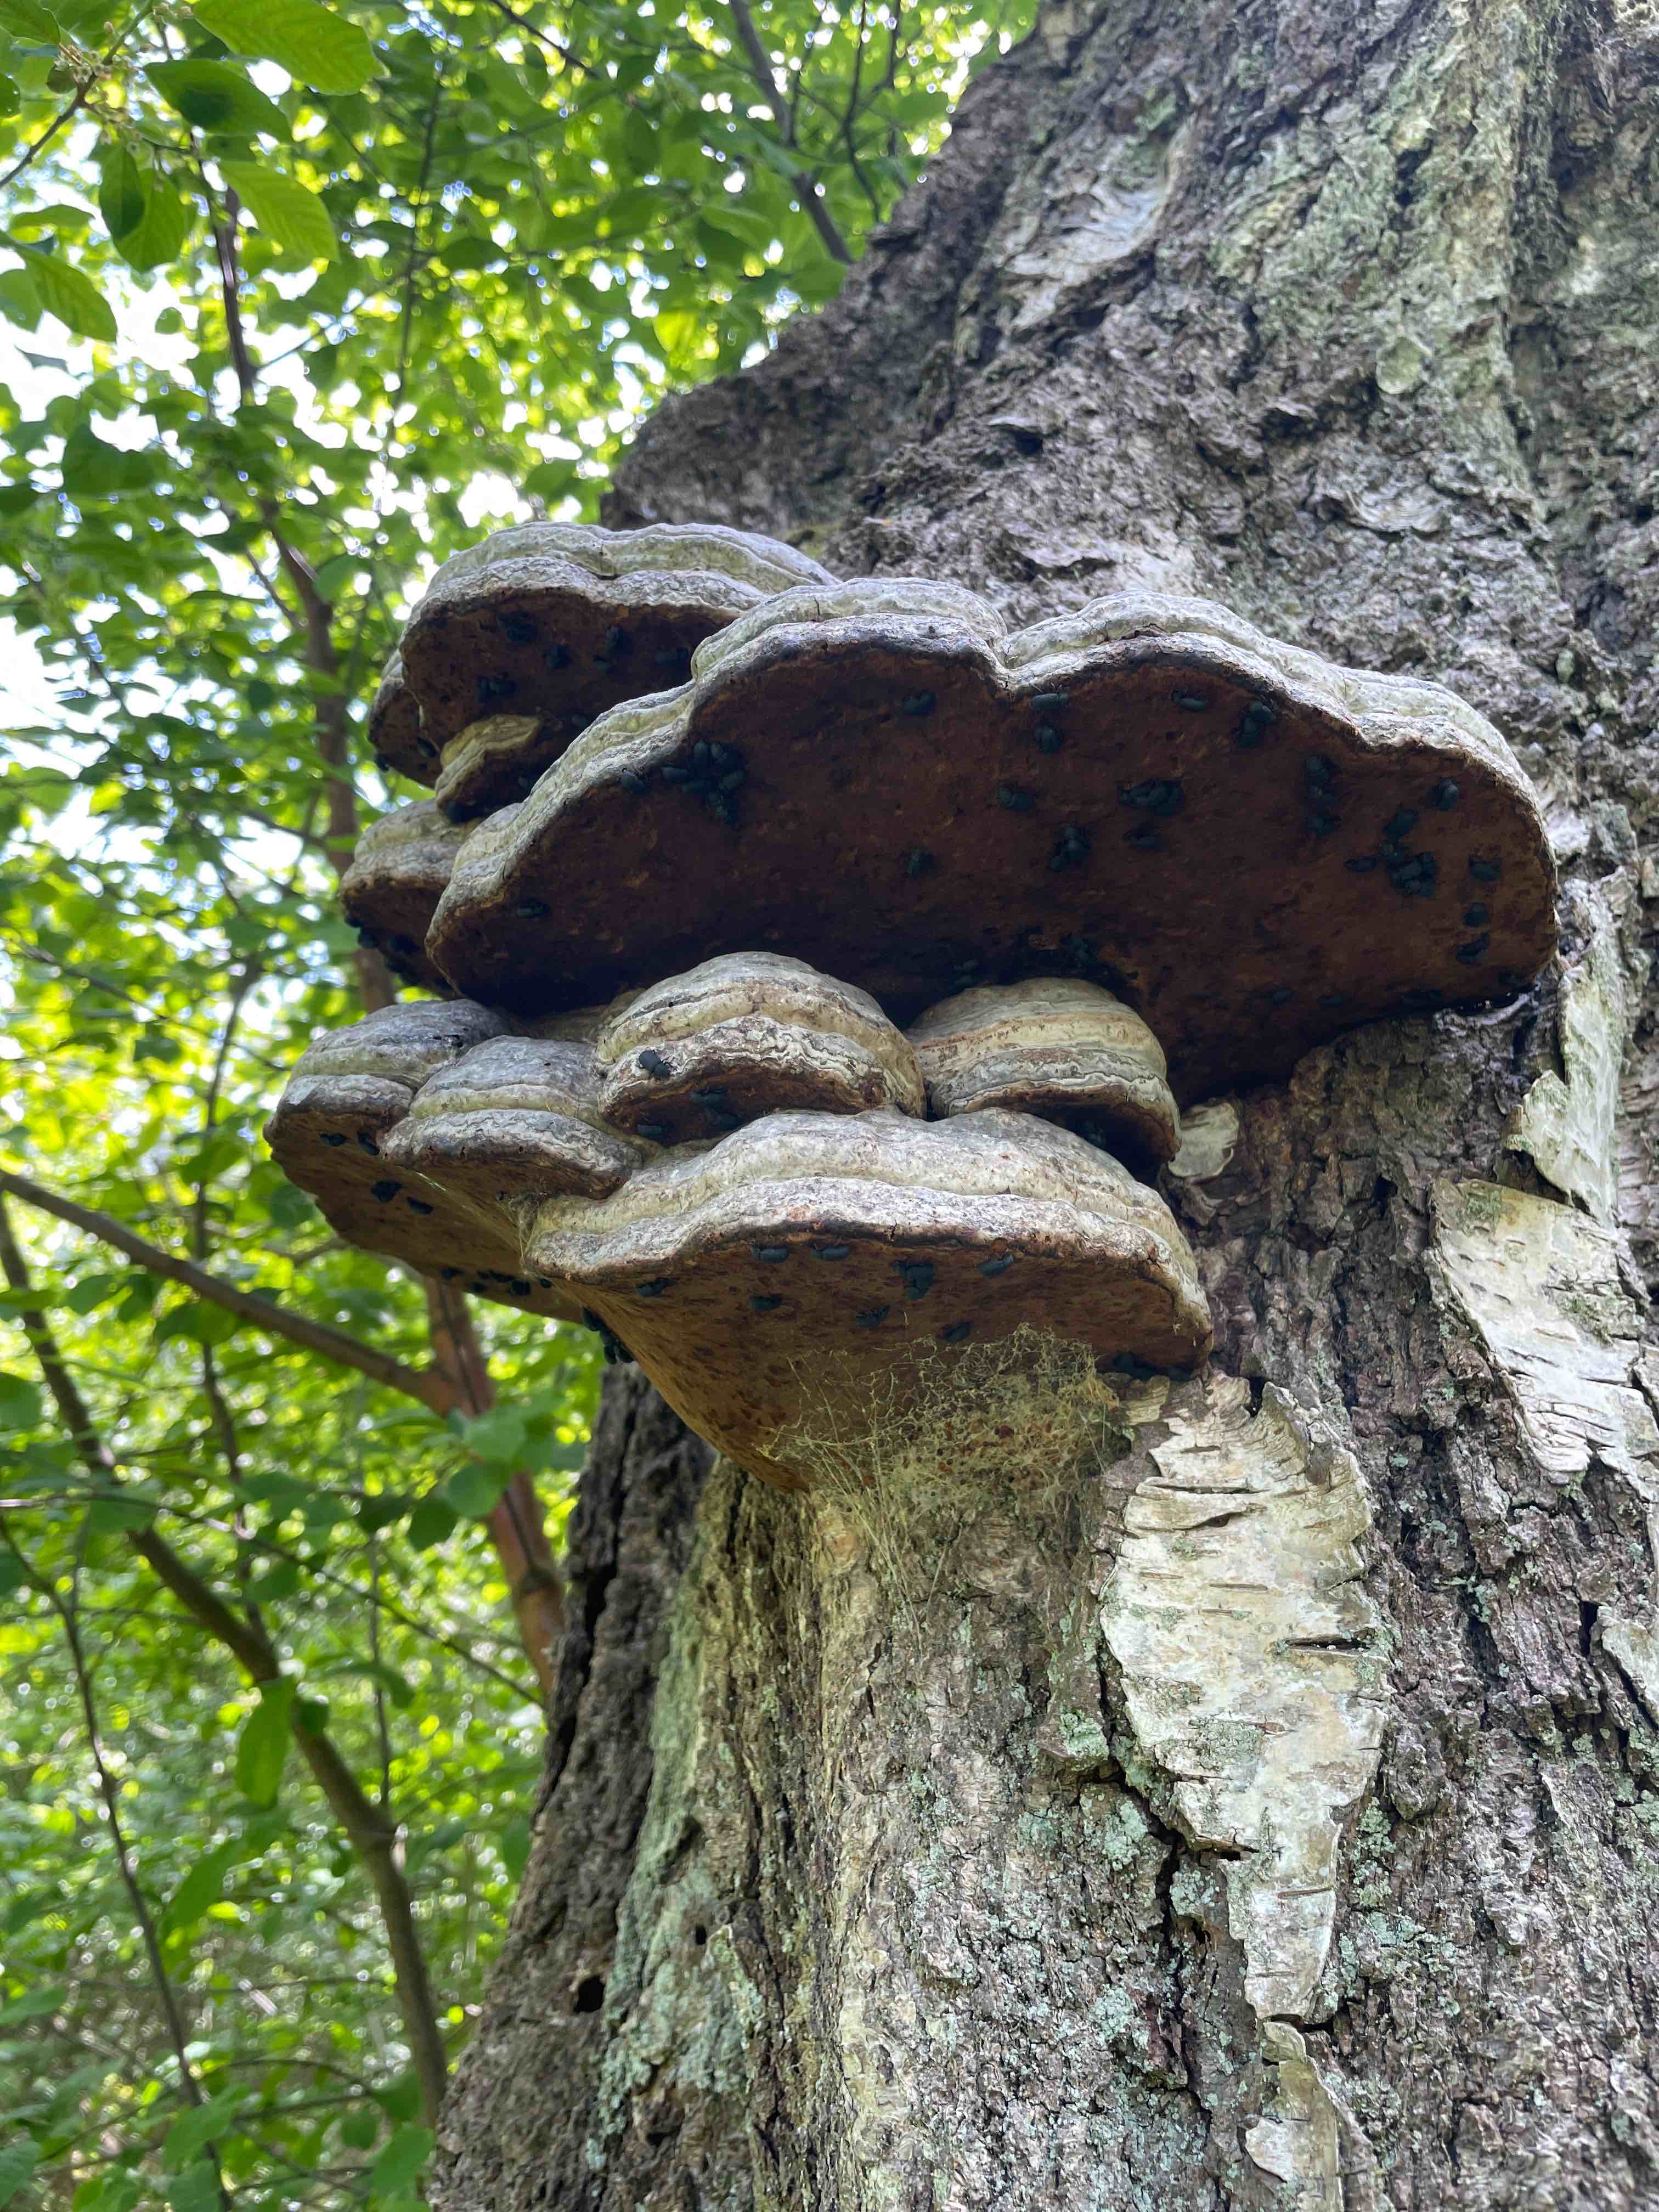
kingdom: Fungi
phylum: Basidiomycota
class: Agaricomycetes
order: Polyporales
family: Polyporaceae
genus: Fomes
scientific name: Fomes fomentarius
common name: tøndersvamp
